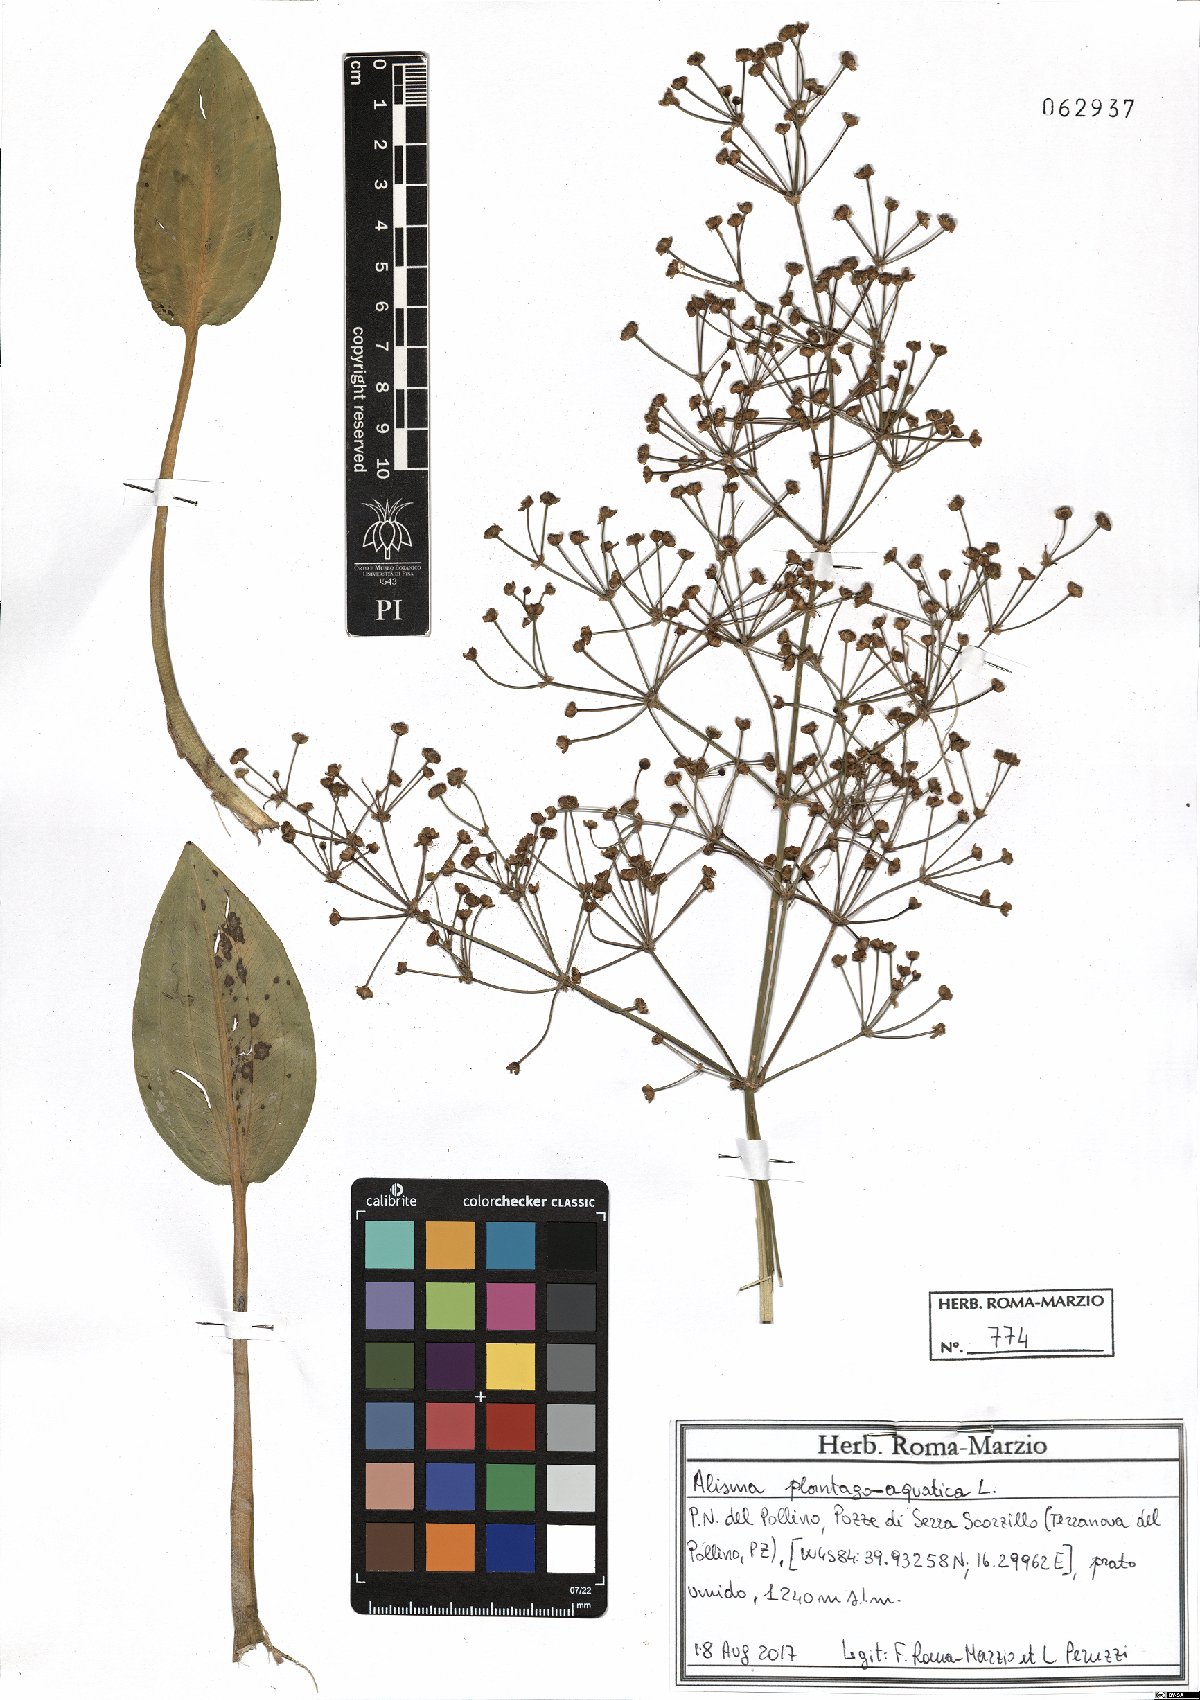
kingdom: Plantae
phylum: Tracheophyta
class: Liliopsida
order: Alismatales
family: Alismataceae
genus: Alisma
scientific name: Alisma plantago-aquatica
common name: Water-plantain
